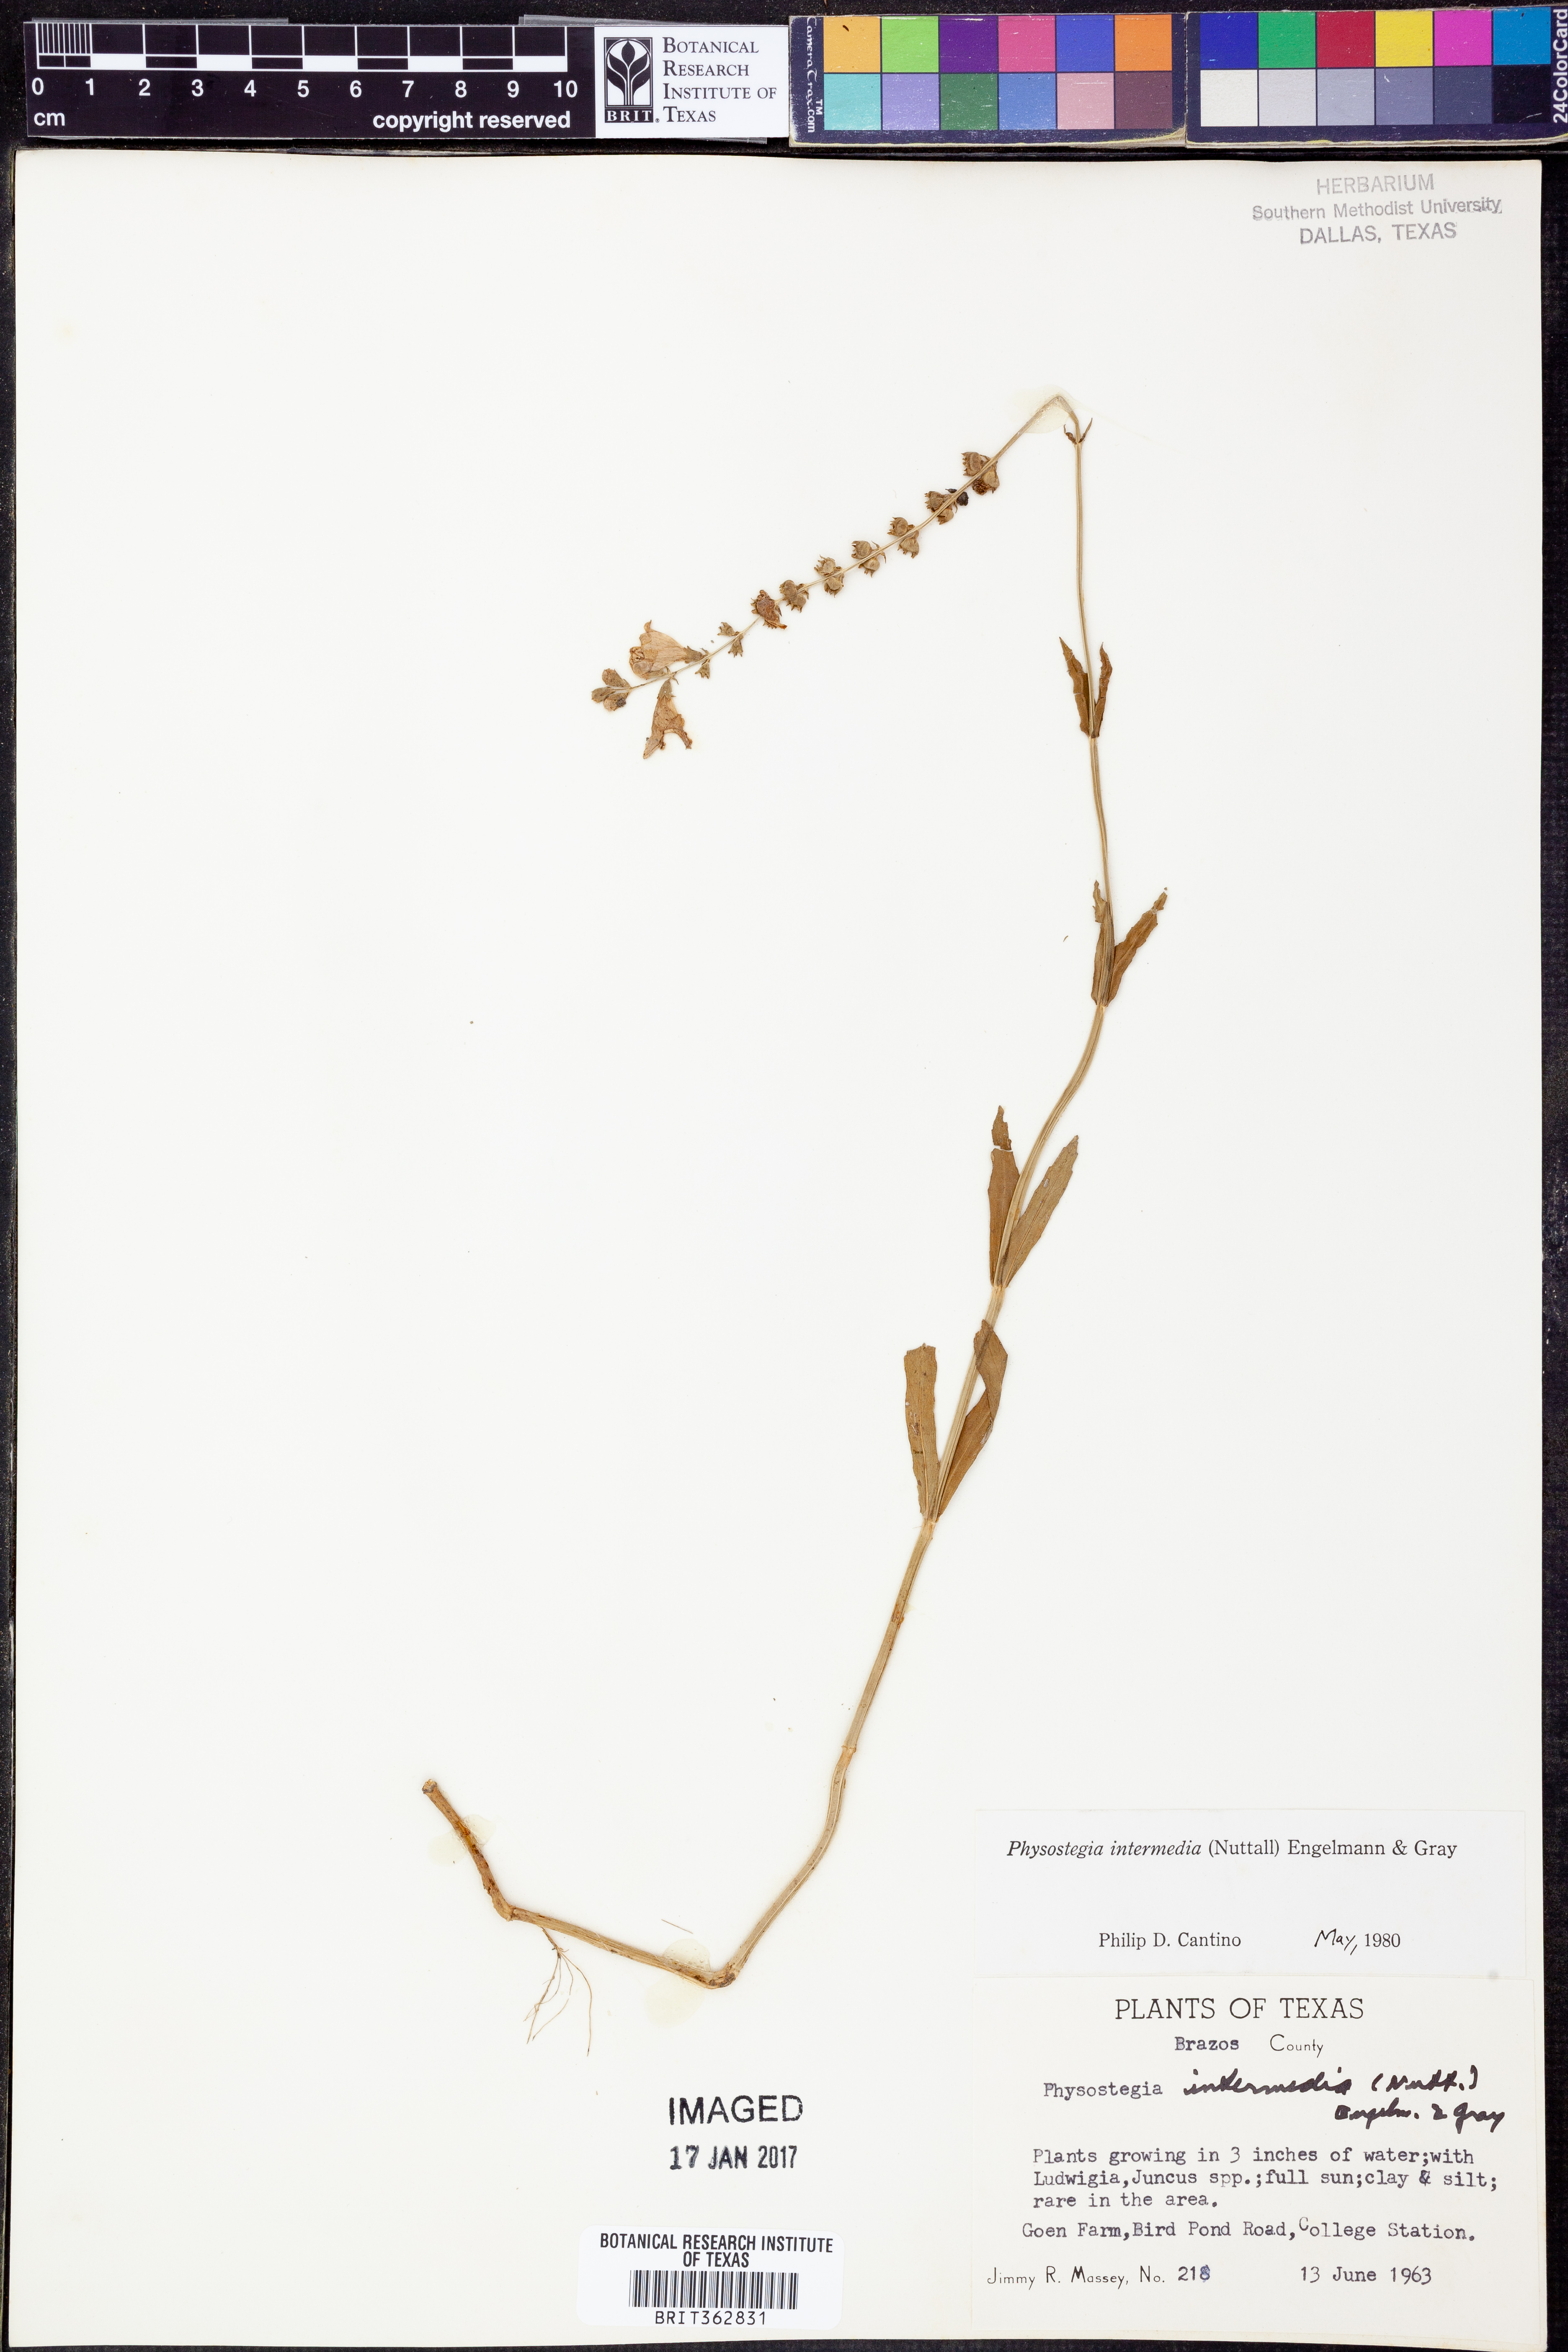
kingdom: Plantae
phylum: Tracheophyta
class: Magnoliopsida
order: Lamiales
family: Lamiaceae
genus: Physostegia
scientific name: Physostegia intermedia
